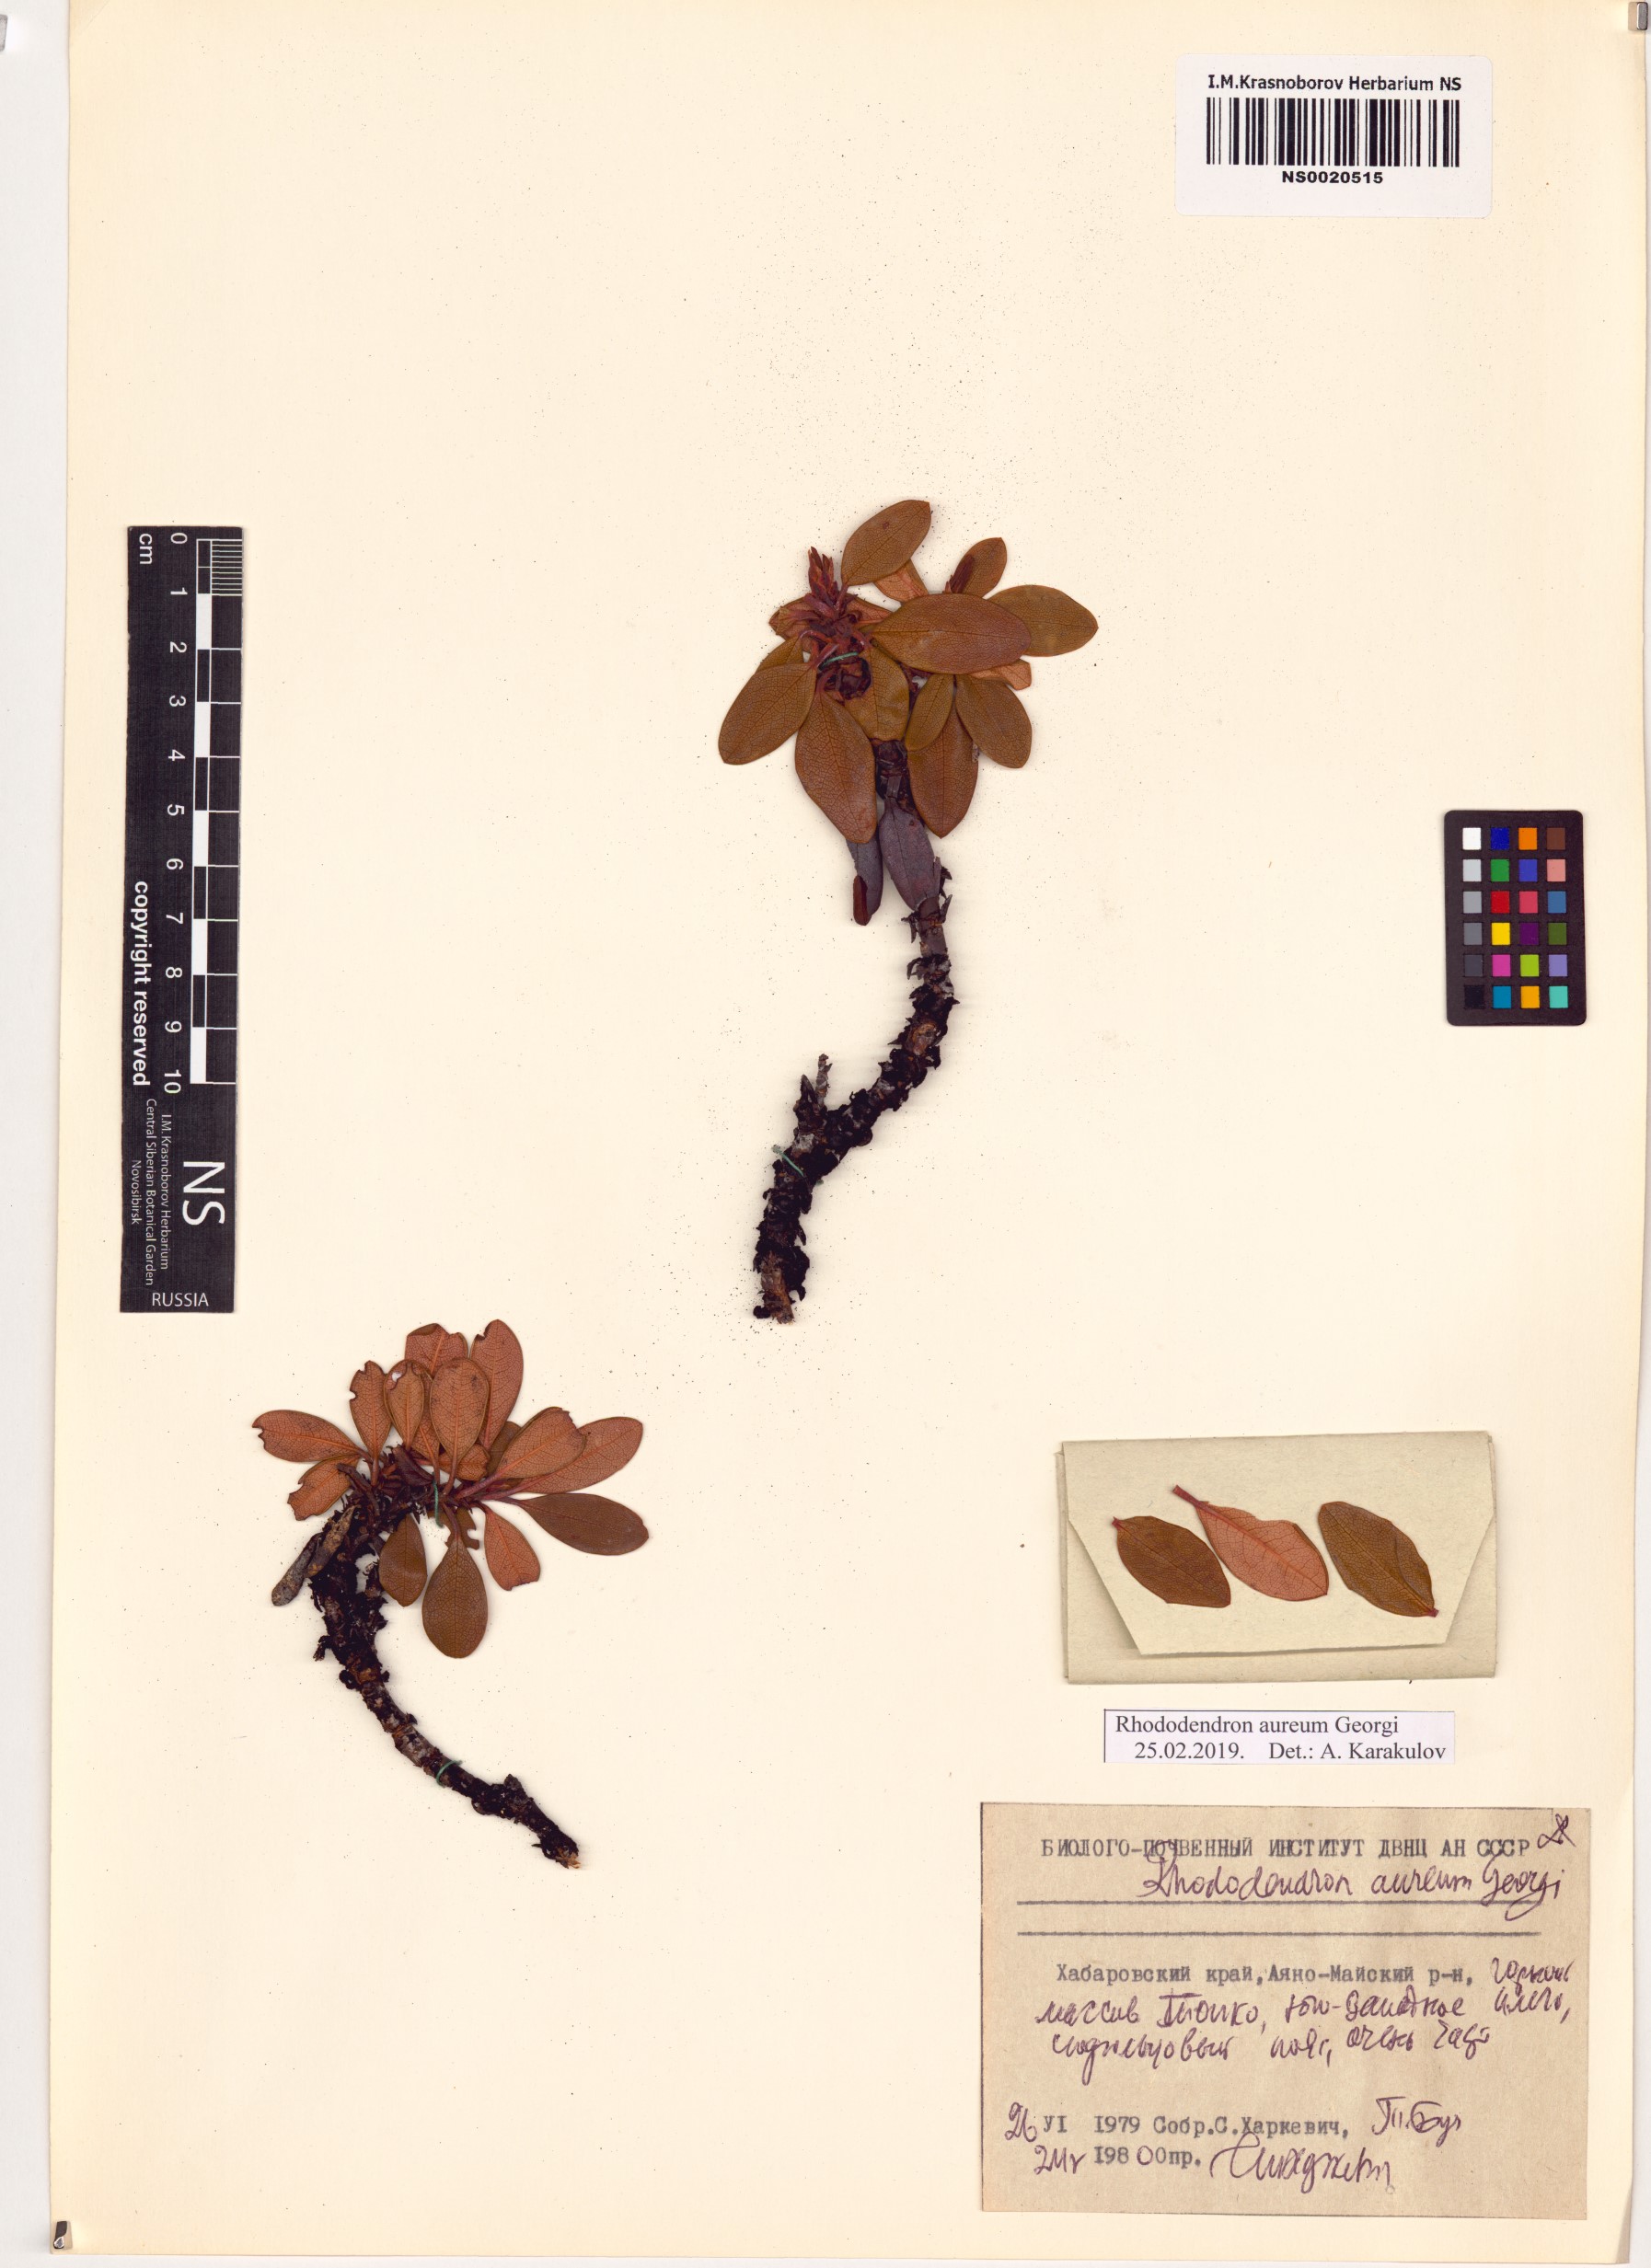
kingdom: Plantae
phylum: Tracheophyta
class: Magnoliopsida
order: Ericales
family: Ericaceae
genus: Rhododendron
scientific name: Rhododendron aureum
